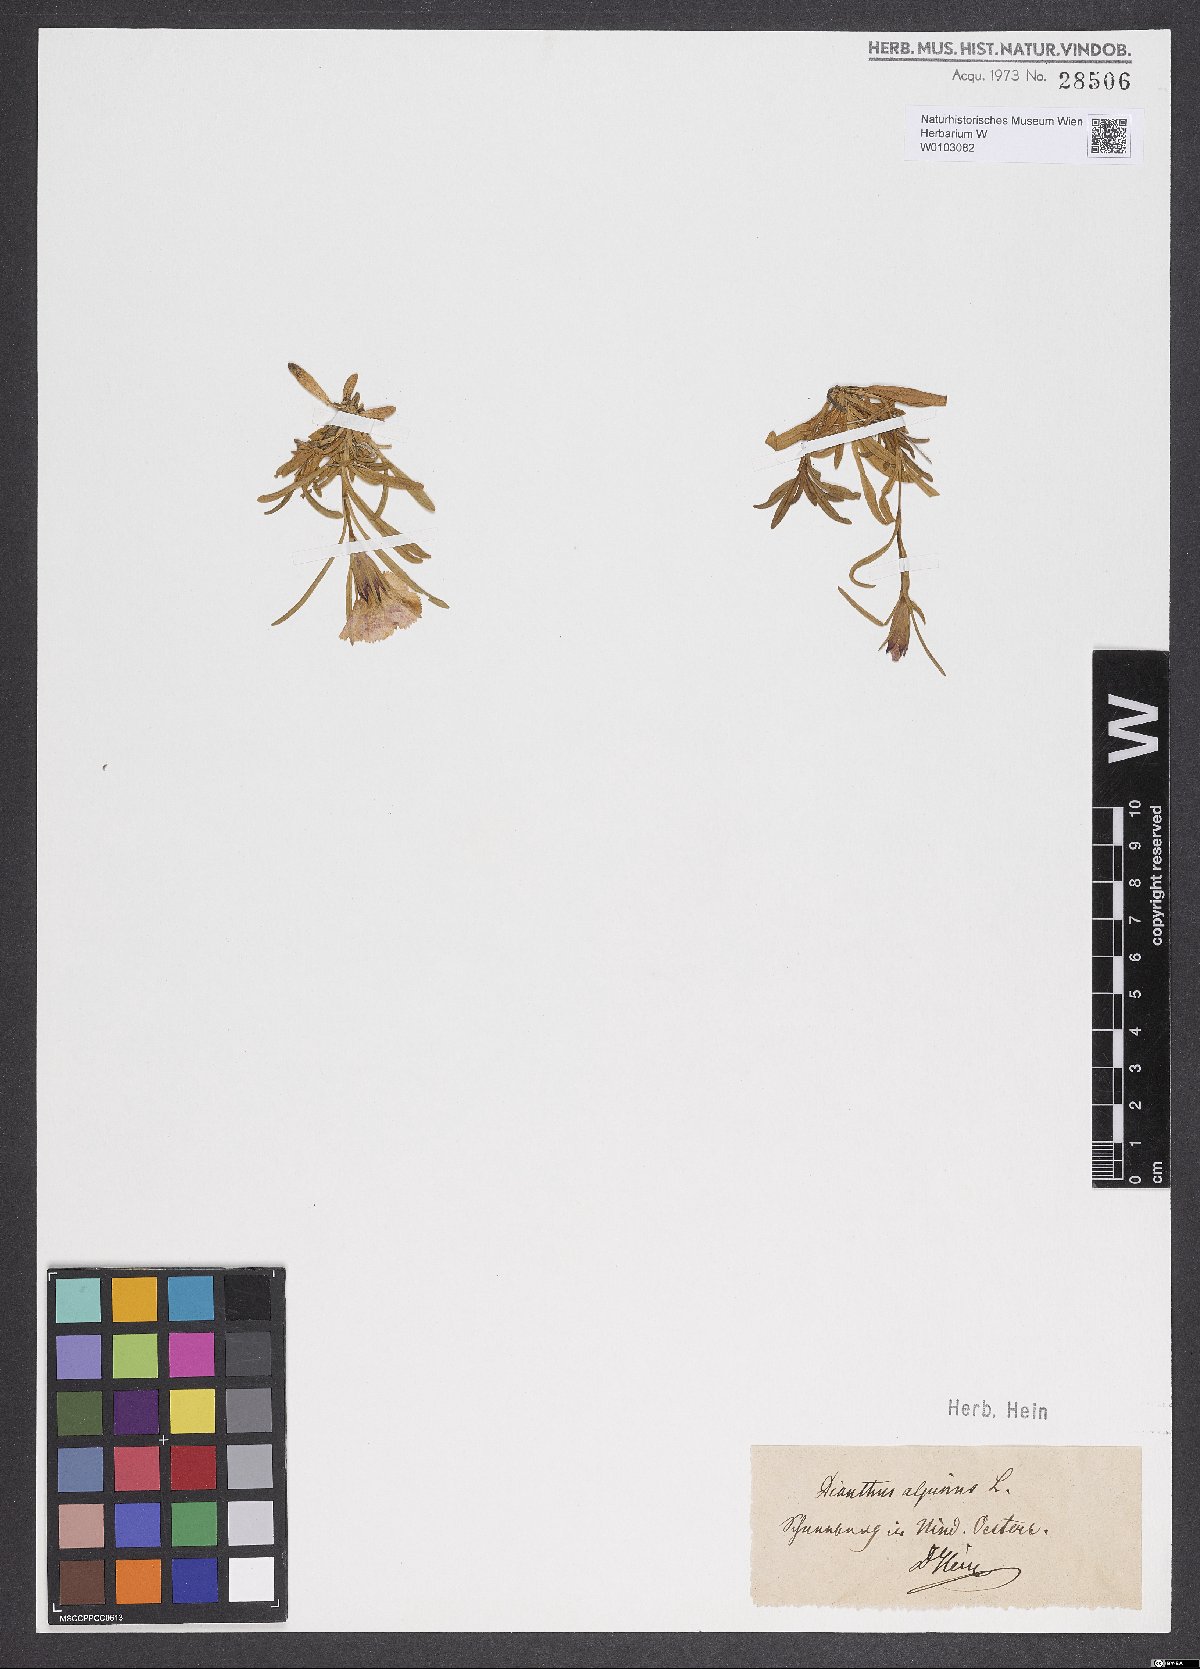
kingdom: Plantae
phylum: Tracheophyta
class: Magnoliopsida
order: Caryophyllales
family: Caryophyllaceae
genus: Dianthus
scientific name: Dianthus alpinus
